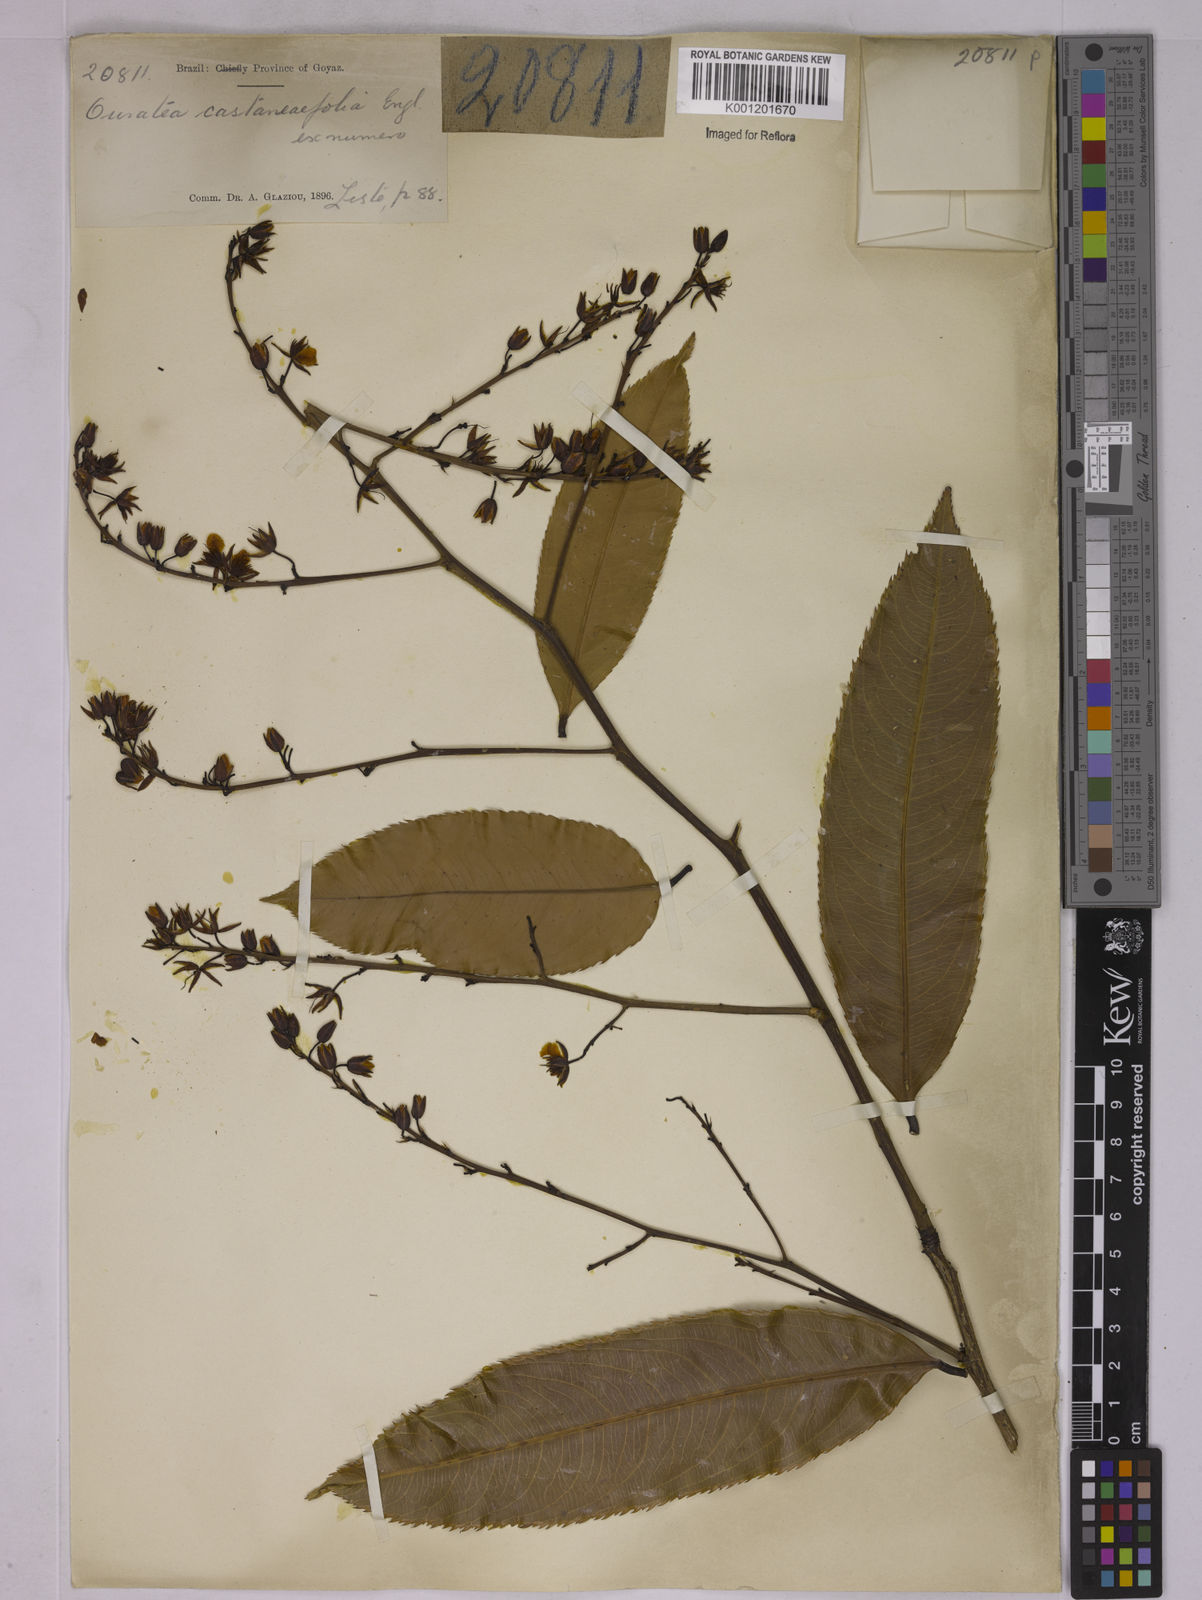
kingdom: Plantae
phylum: Tracheophyta
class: Magnoliopsida
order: Malpighiales
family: Ochnaceae
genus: Ouratea
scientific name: Ouratea castaneifolia
